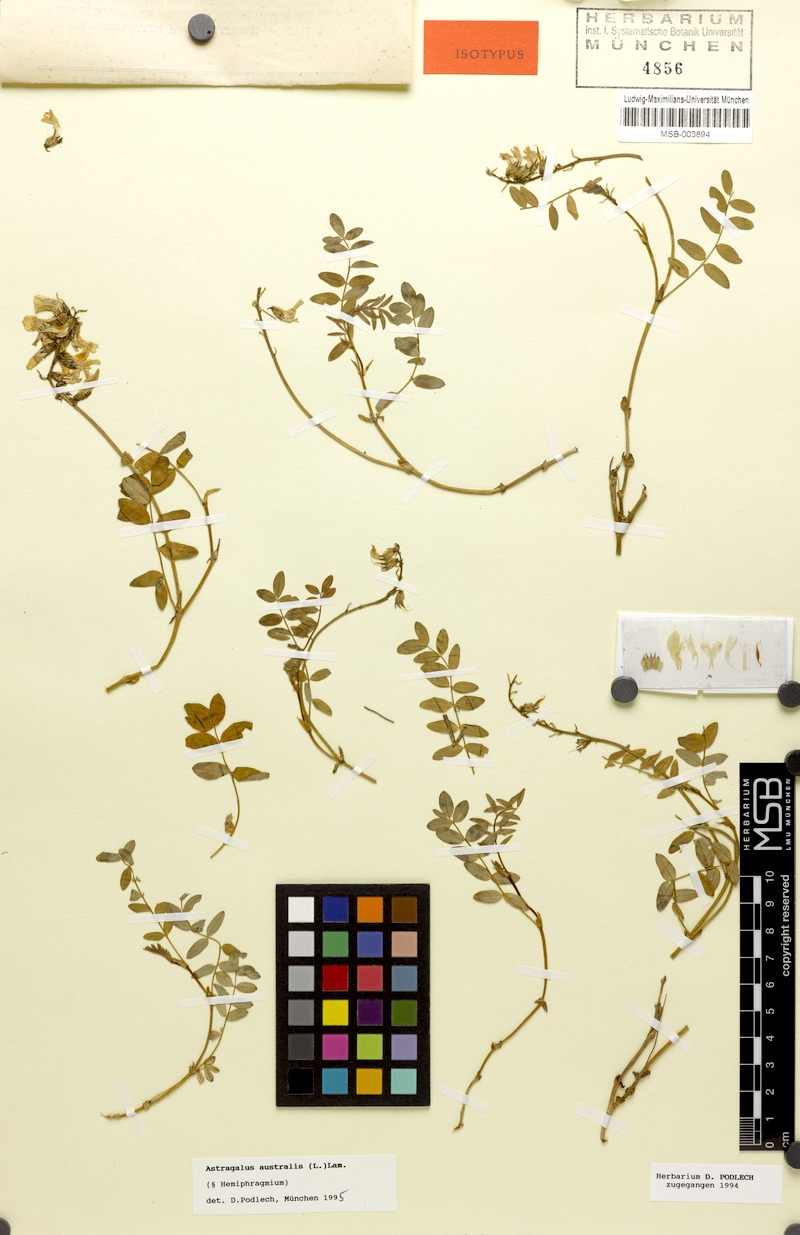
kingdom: Plantae
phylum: Tracheophyta
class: Magnoliopsida
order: Fabales
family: Fabaceae
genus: Astragalus
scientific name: Astragalus australis
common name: Indian milk-vetch
